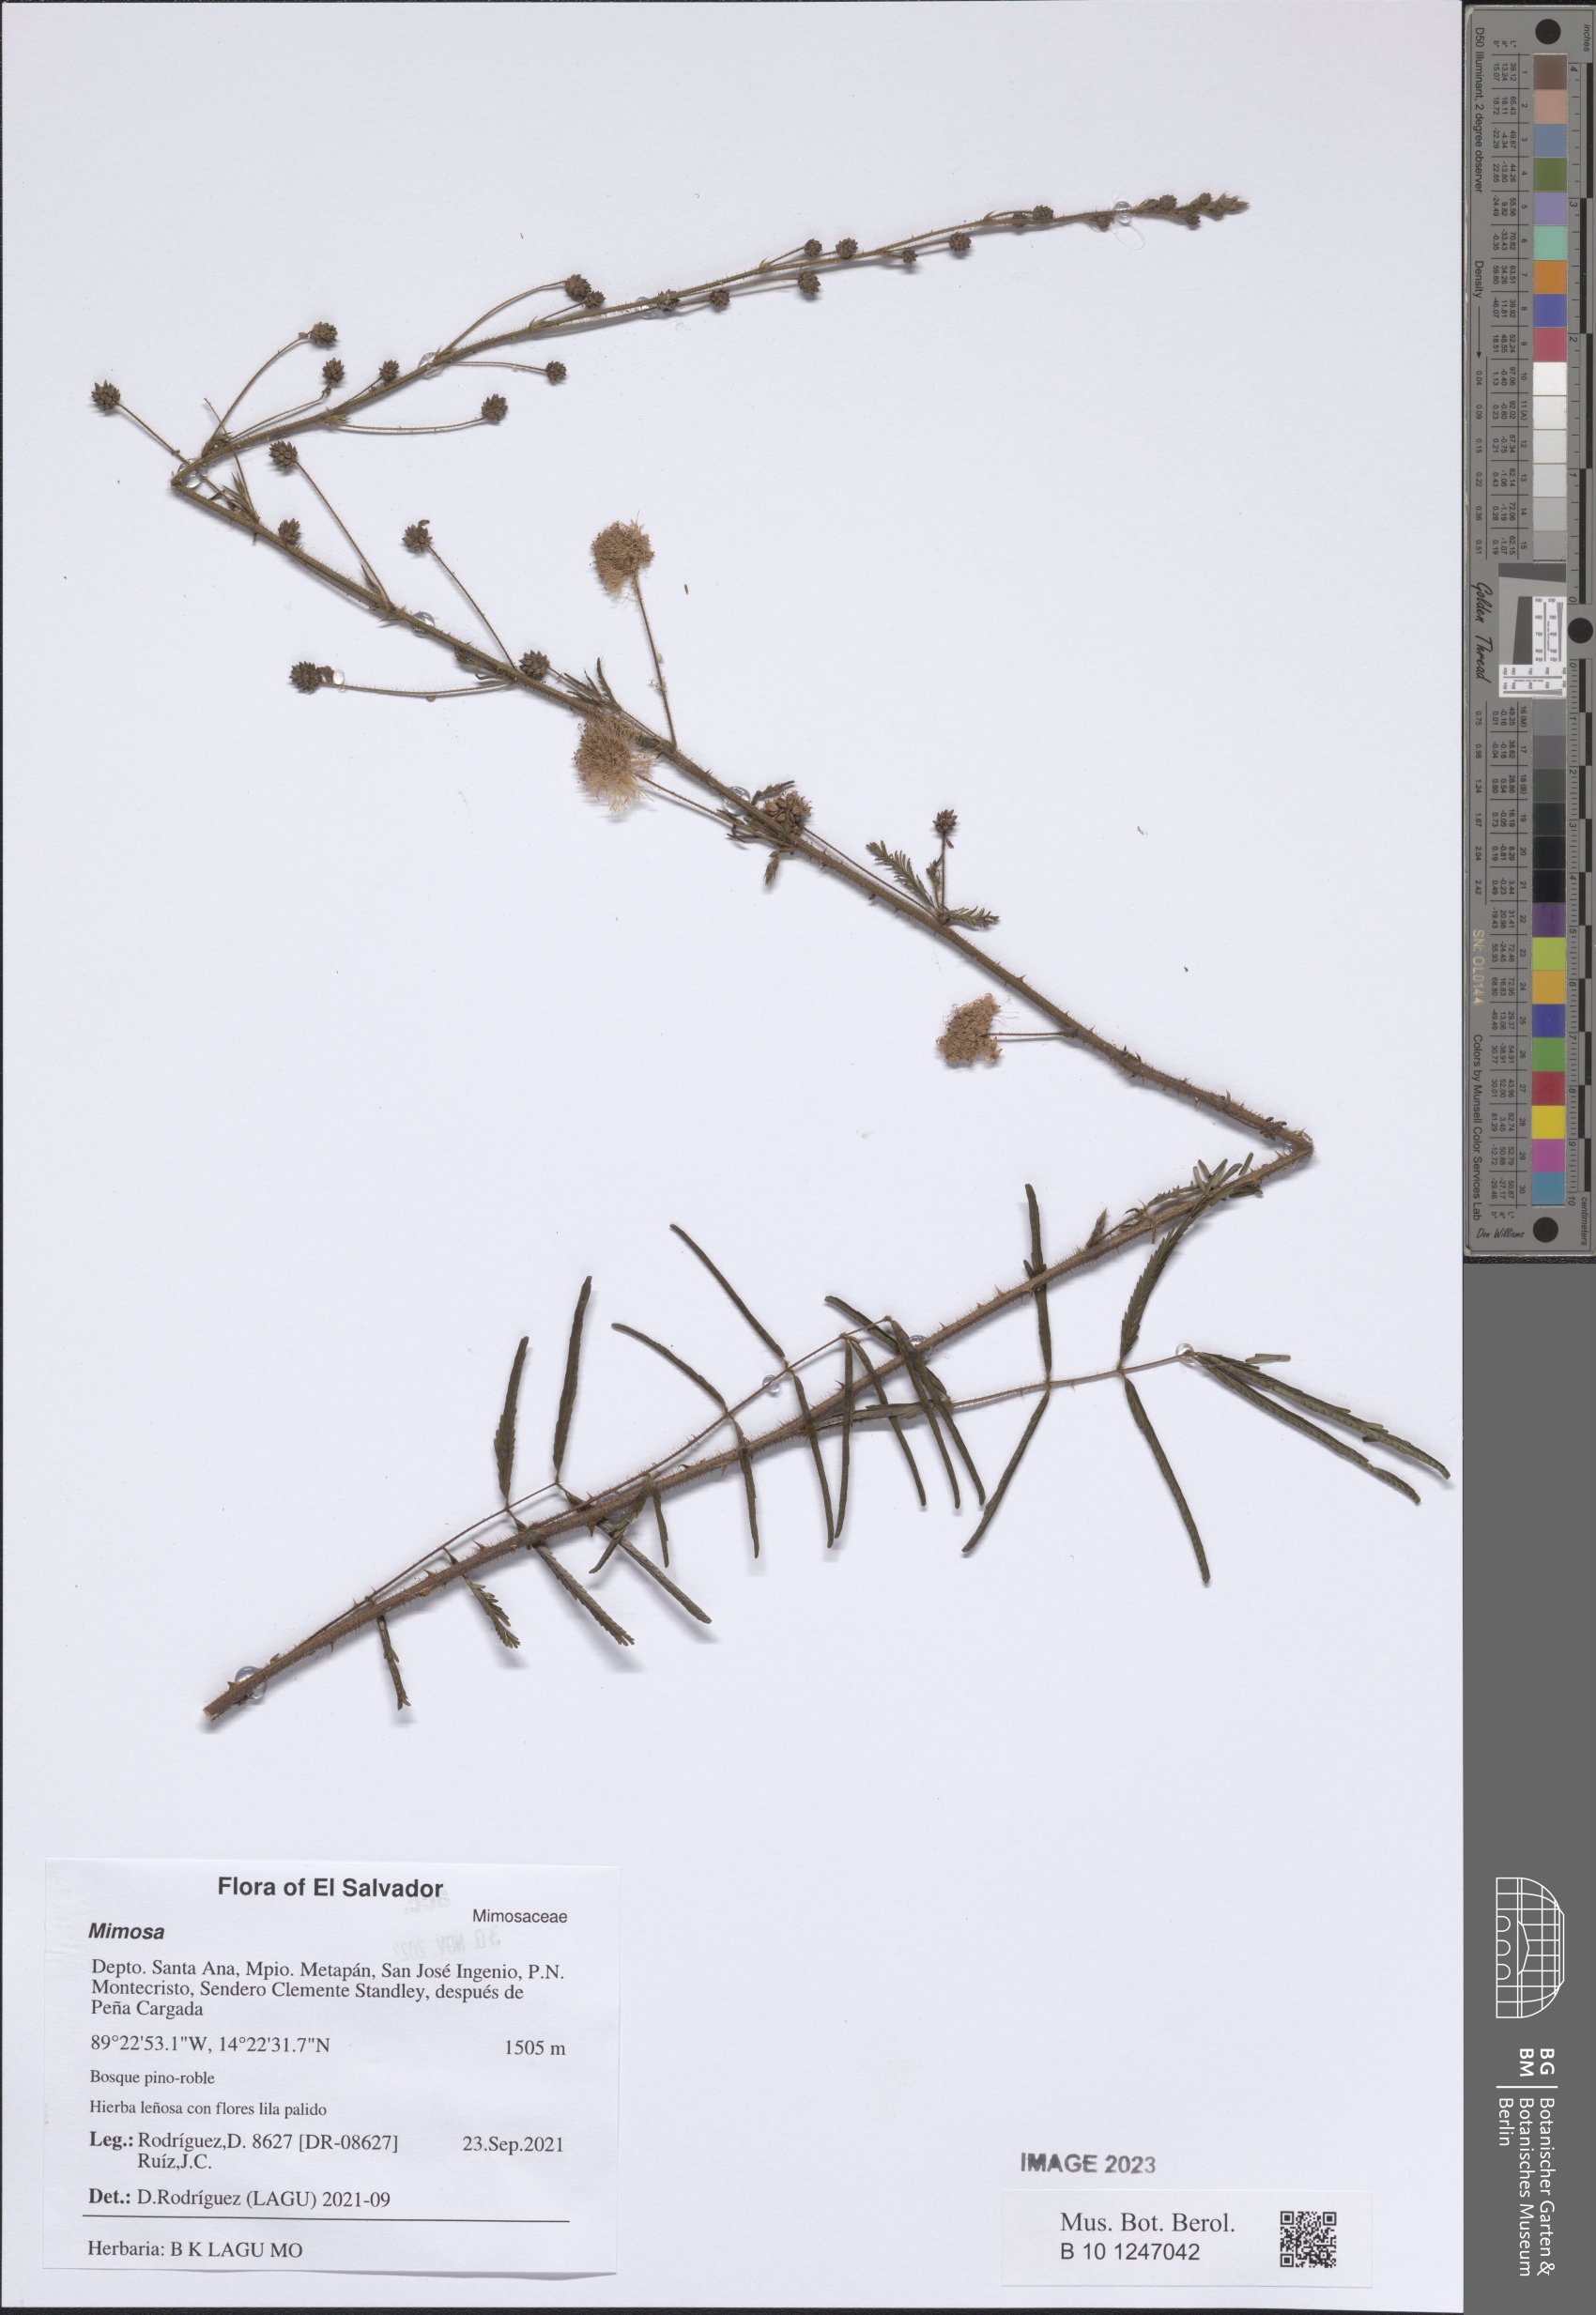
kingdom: Plantae
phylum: Tracheophyta
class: Magnoliopsida
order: Fabales
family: Fabaceae
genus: Mimosa
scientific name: Mimosa
